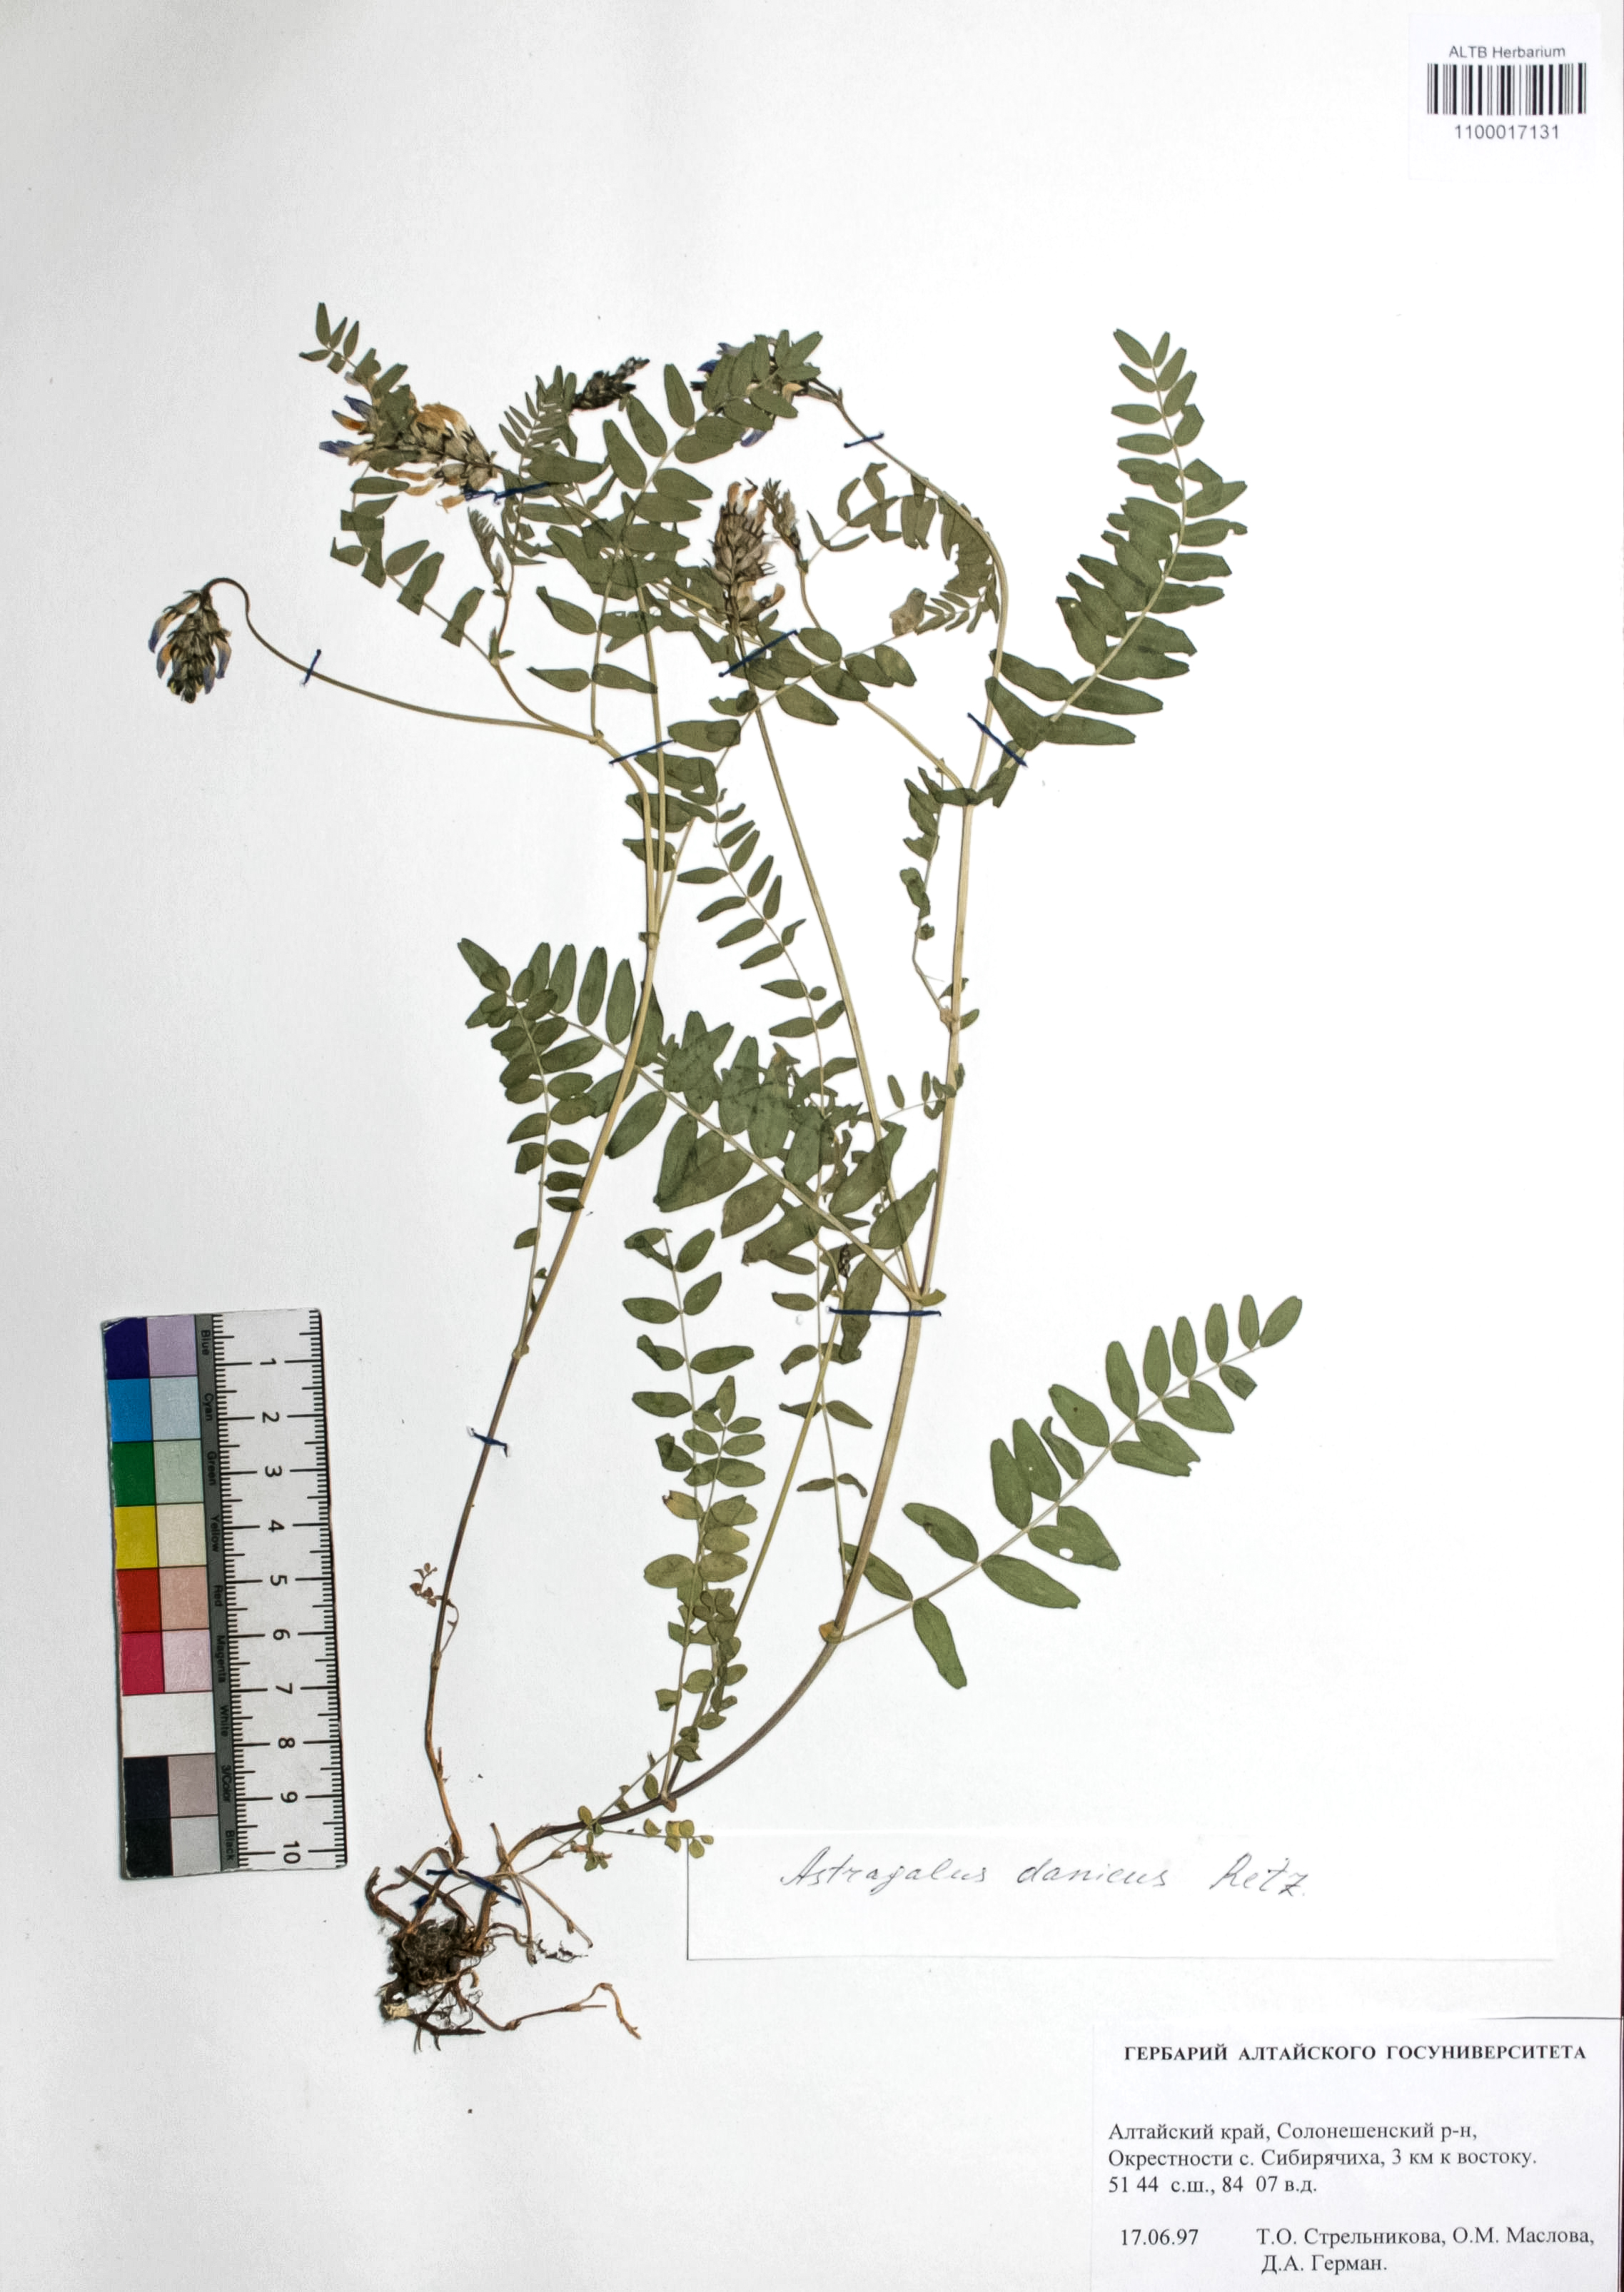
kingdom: Plantae
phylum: Tracheophyta
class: Magnoliopsida
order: Fabales
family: Fabaceae
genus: Astragalus
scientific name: Astragalus danicus
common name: Purple milk-vetch
